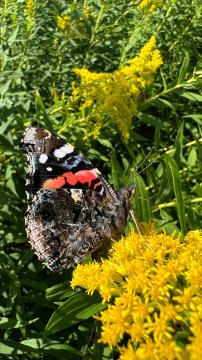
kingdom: Animalia
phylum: Arthropoda
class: Insecta
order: Lepidoptera
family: Nymphalidae
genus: Vanessa
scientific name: Vanessa atalanta
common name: Red Admiral
